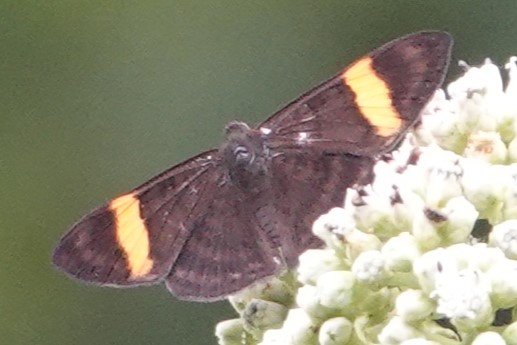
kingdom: Animalia
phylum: Arthropoda
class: Insecta
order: Lepidoptera
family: Lycaenidae
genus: Emesis
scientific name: Emesis cypria
